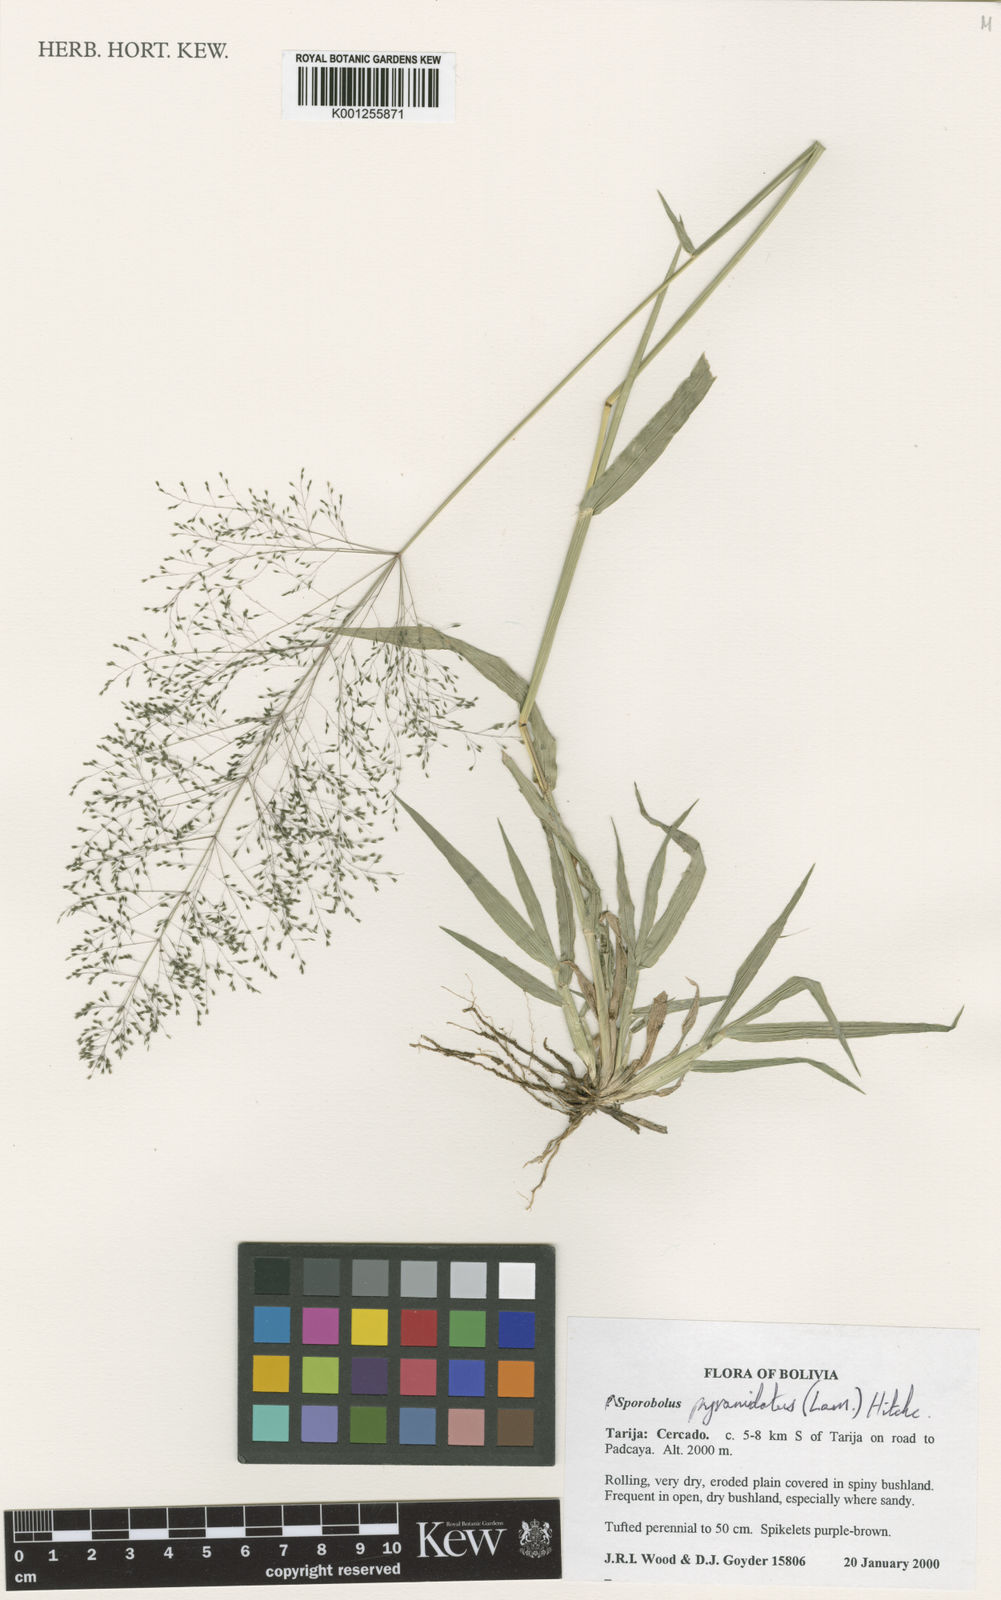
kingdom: Plantae
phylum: Tracheophyta
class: Liliopsida
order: Poales
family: Poaceae
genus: Sporobolus
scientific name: Sporobolus pyramidatus
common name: Whorled dropseed
